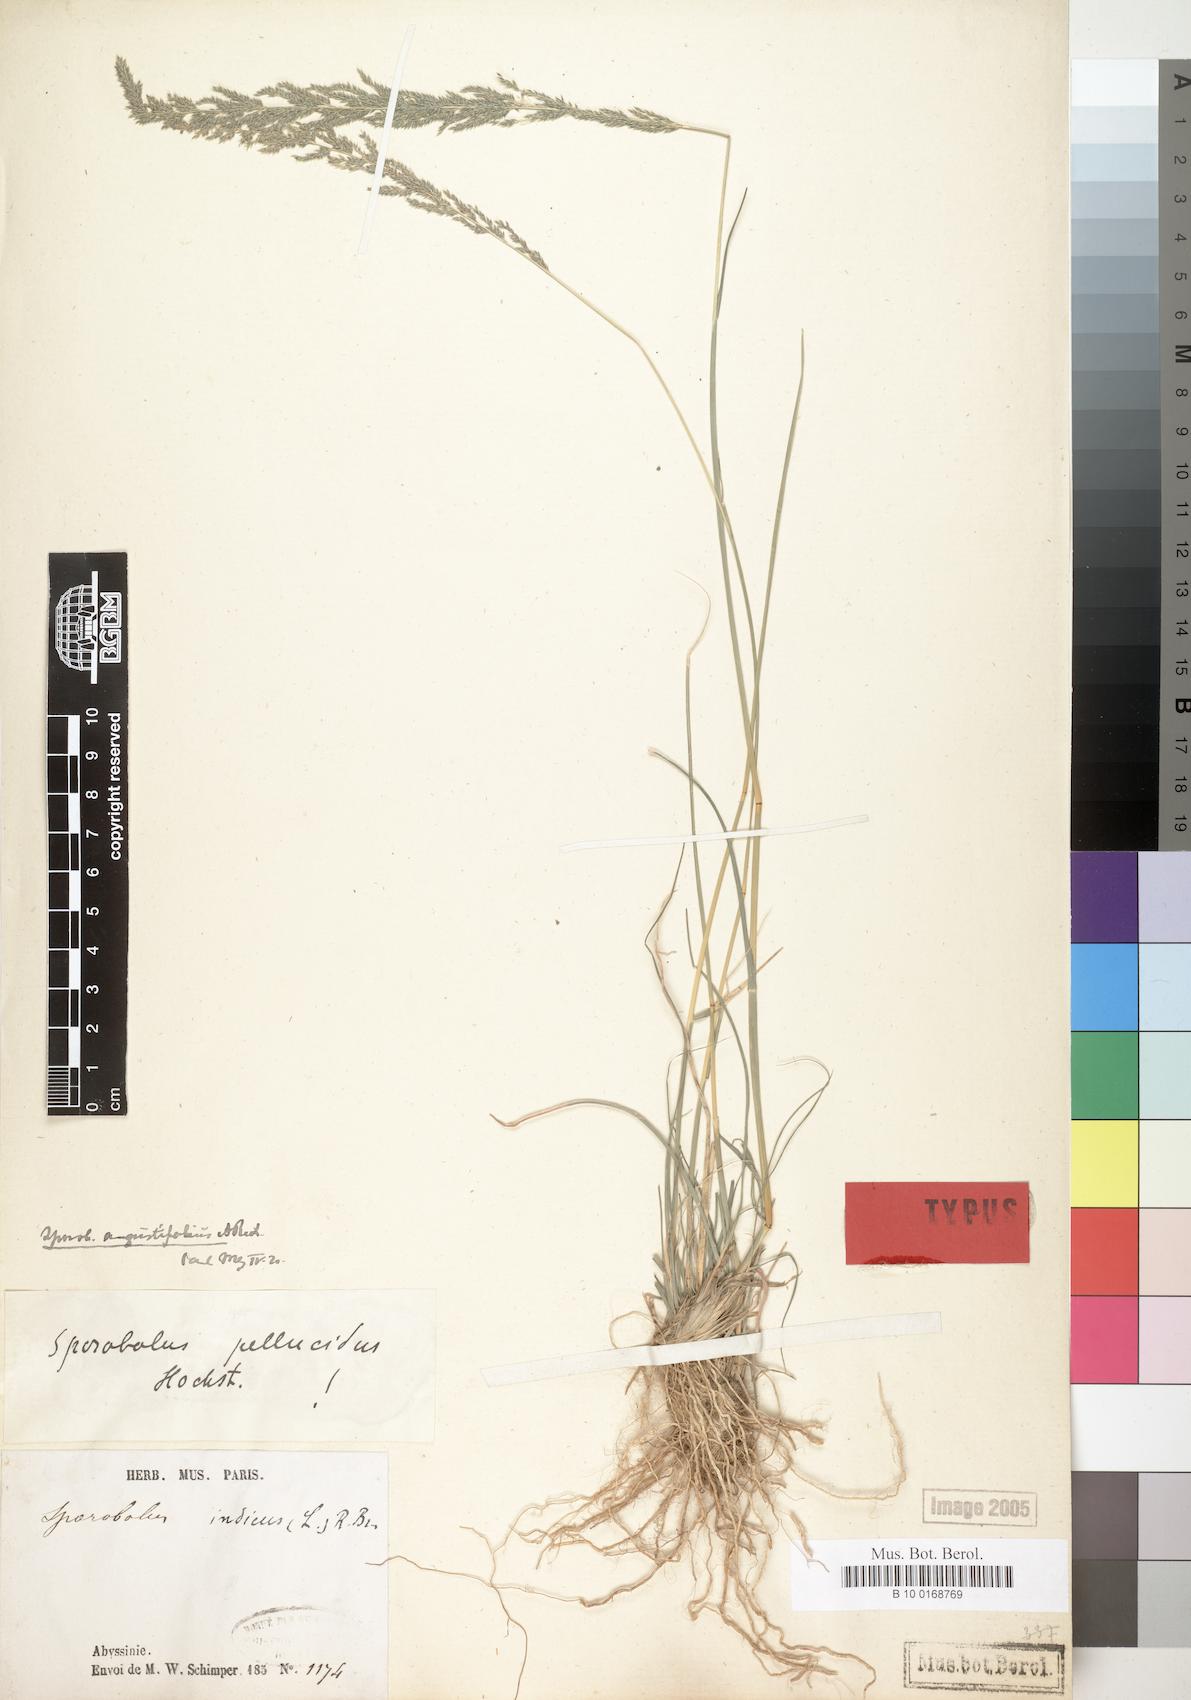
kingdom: Plantae
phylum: Tracheophyta
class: Liliopsida
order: Poales
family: Poaceae
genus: Sporobolus
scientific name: Sporobolus pellucidus
